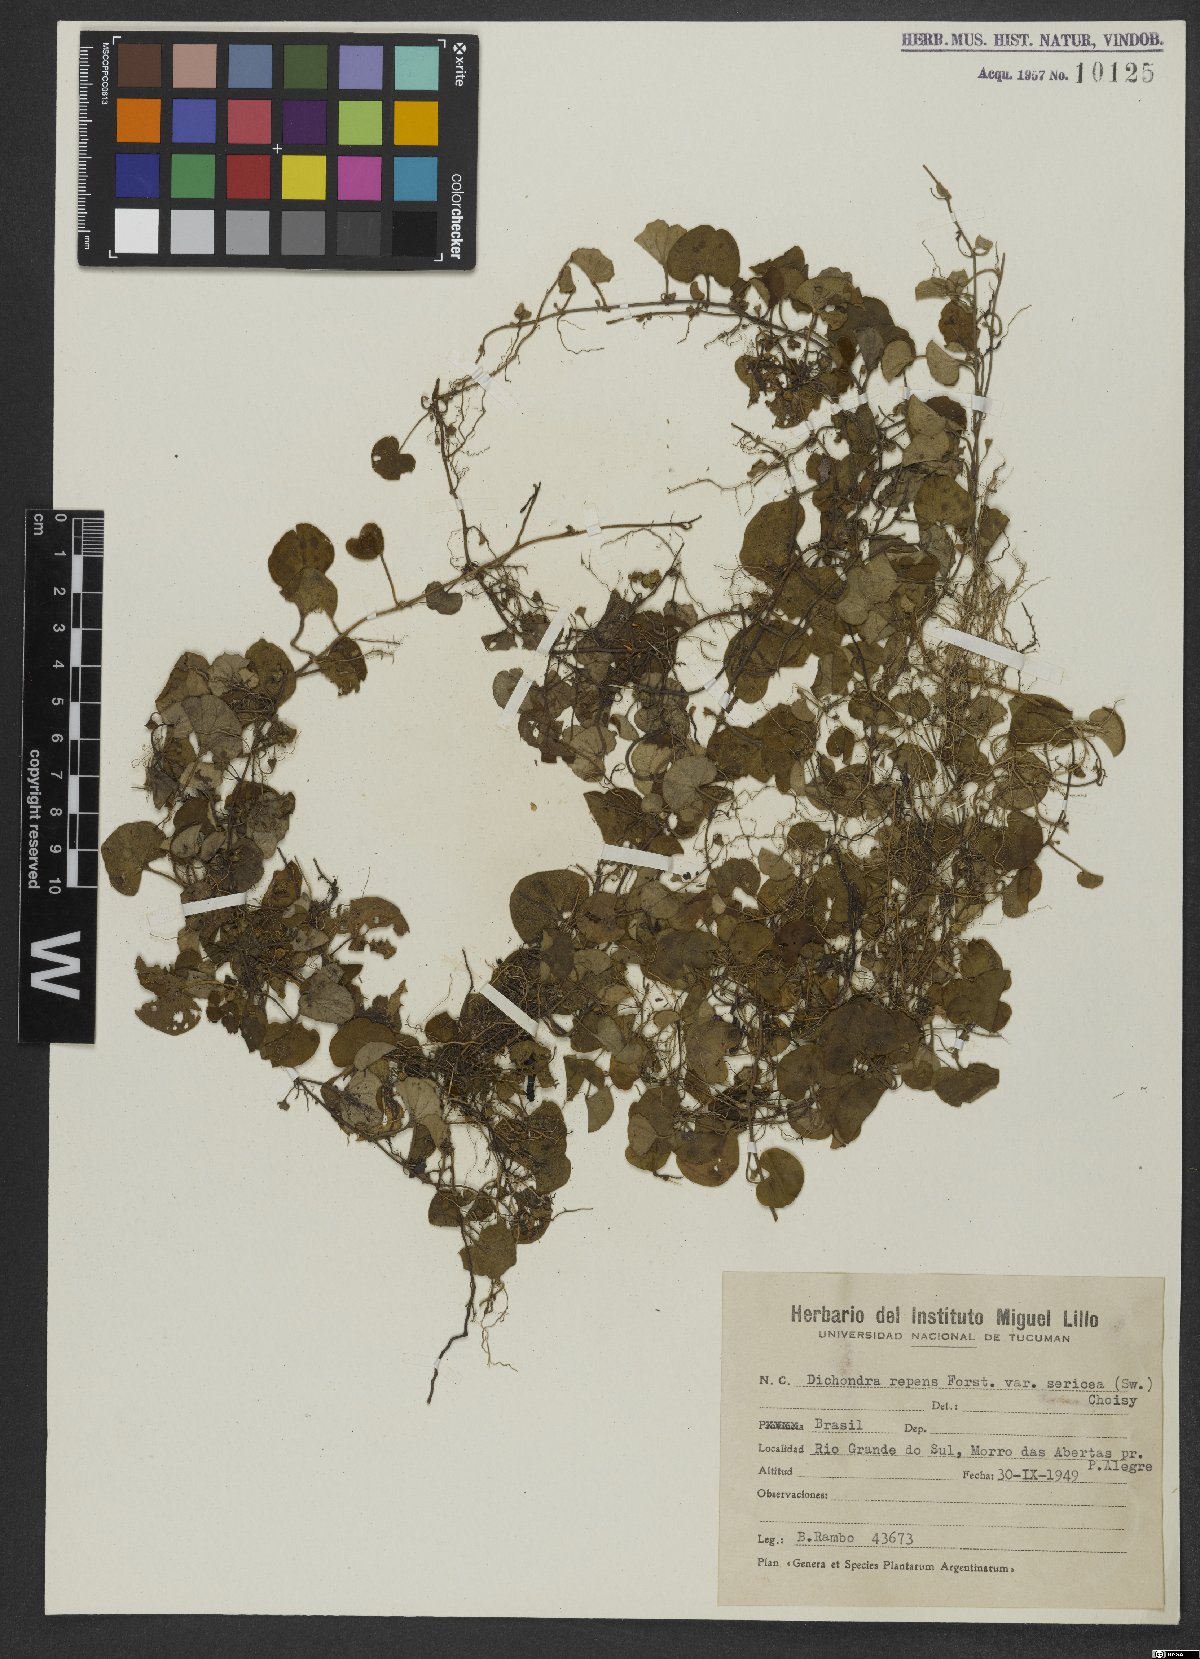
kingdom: Plantae
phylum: Tracheophyta
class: Magnoliopsida
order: Solanales
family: Convolvulaceae
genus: Dichondra
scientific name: Dichondra repens
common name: Kidneyweed
